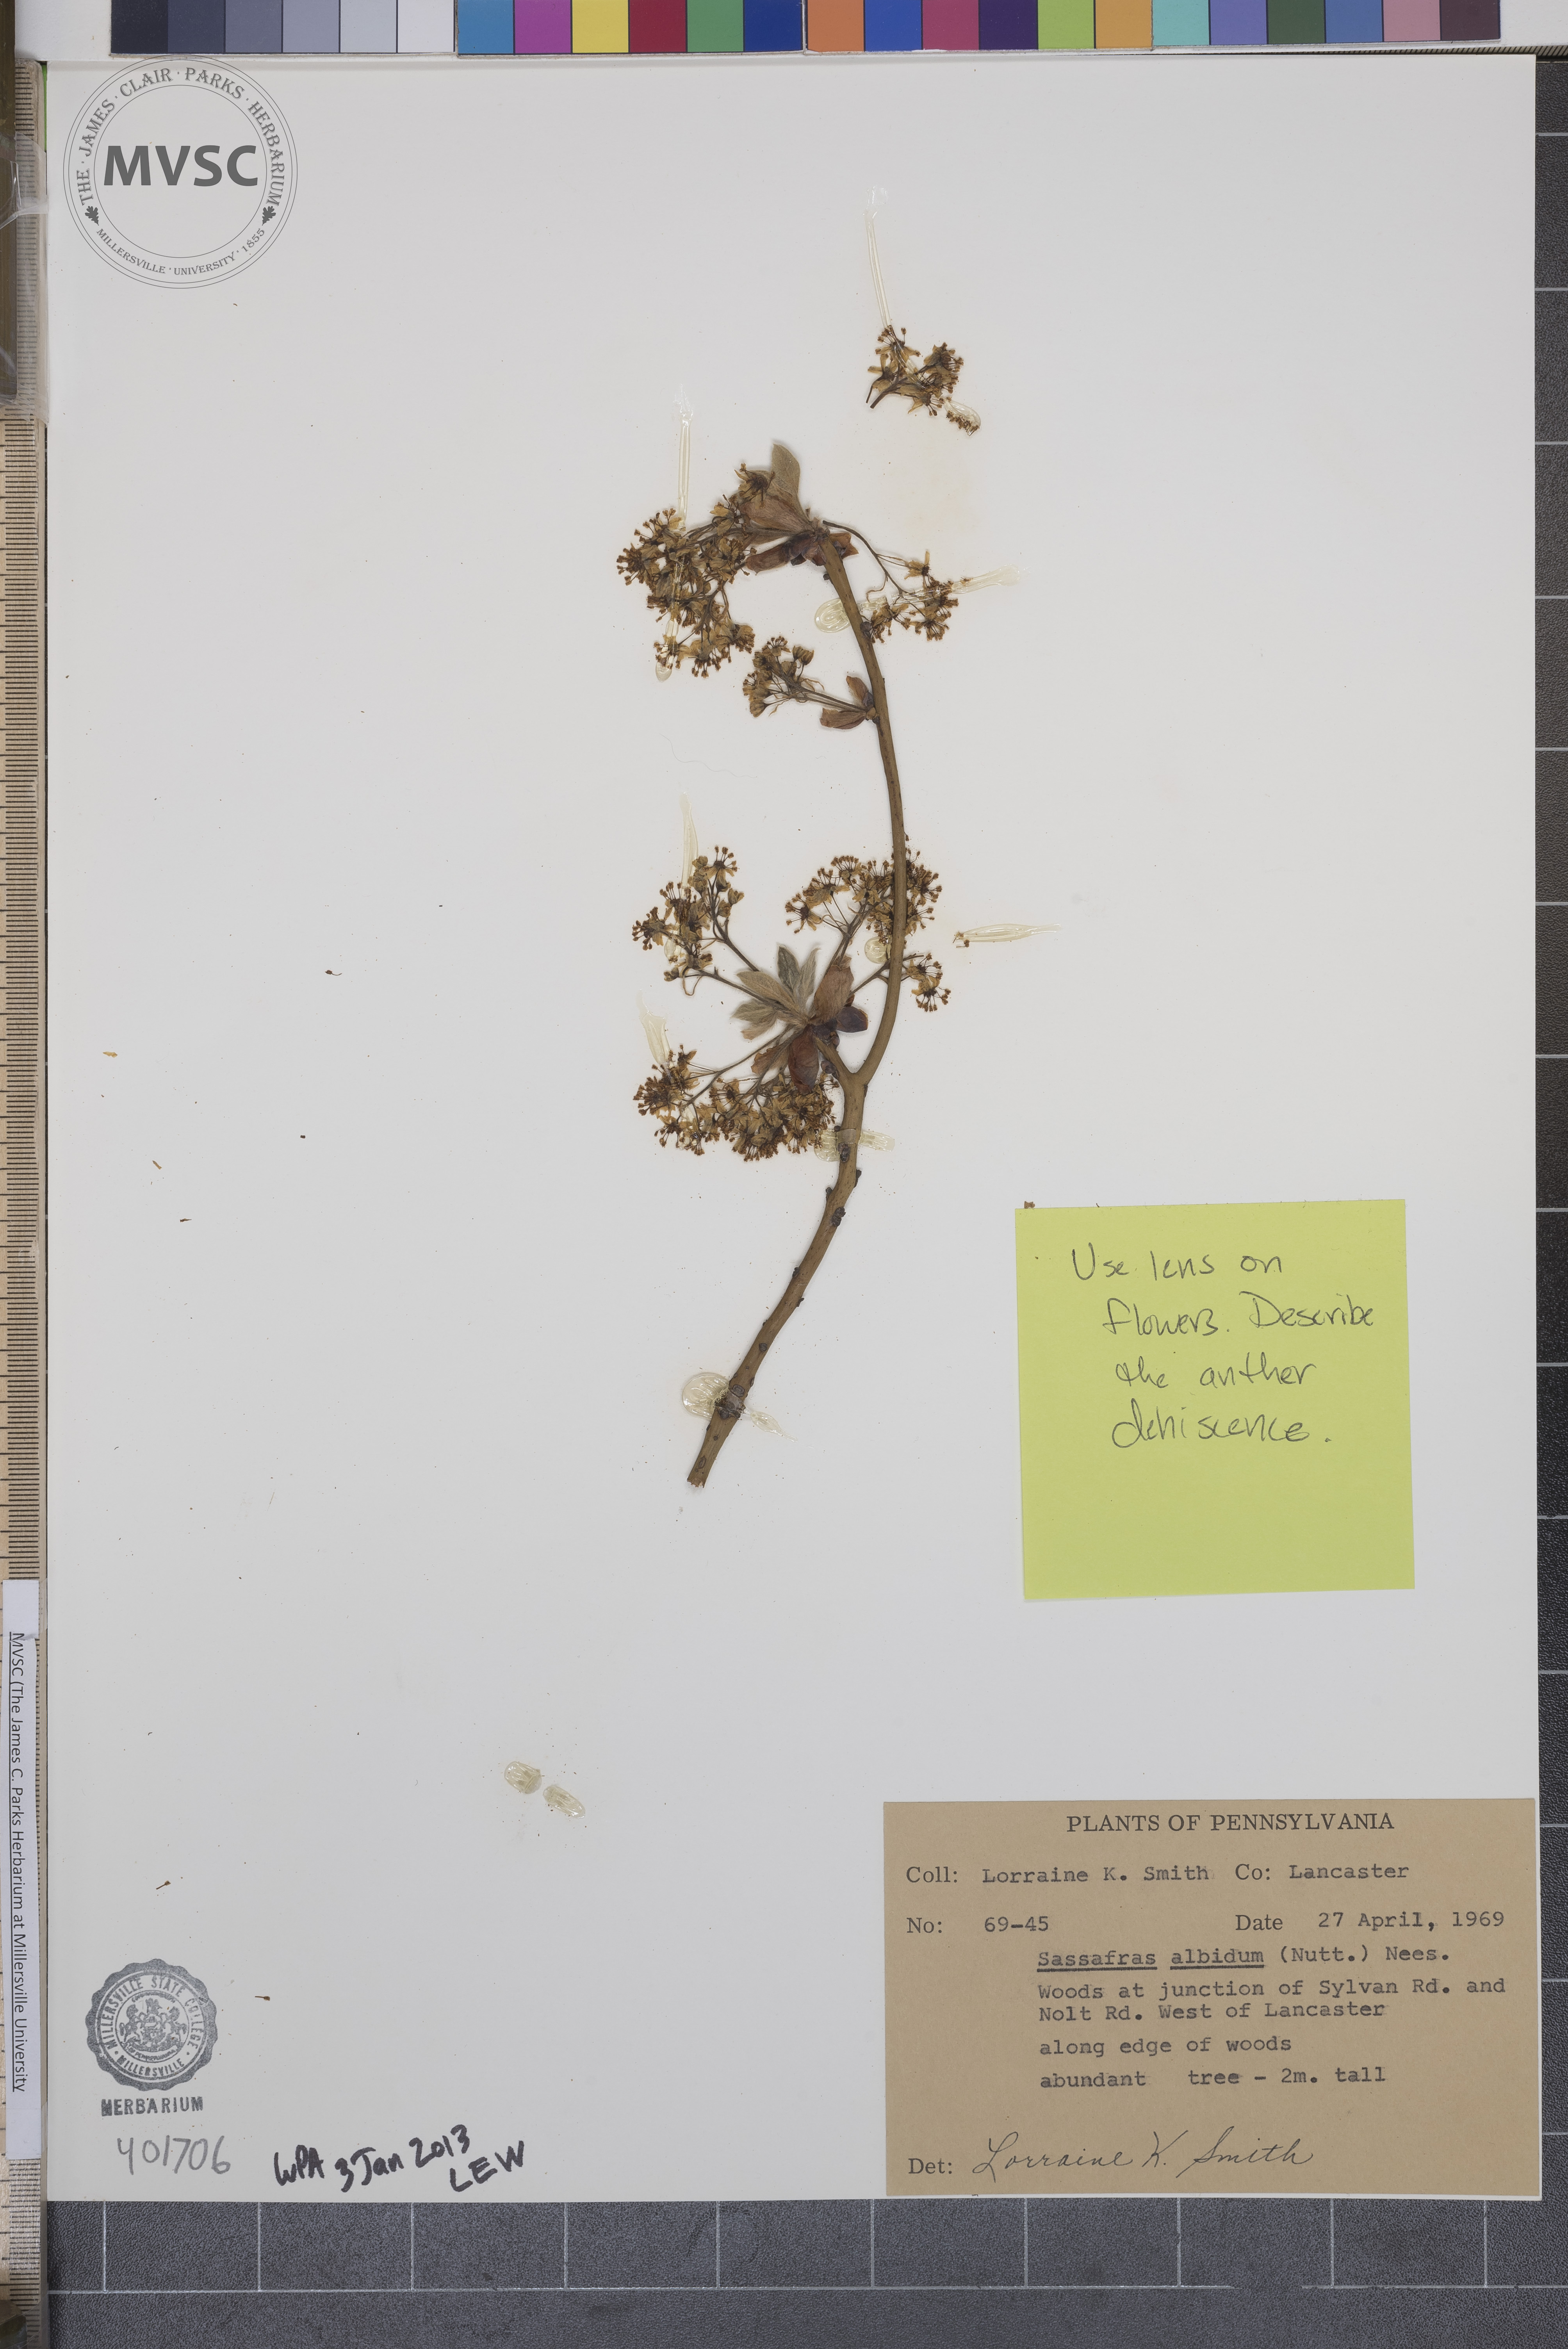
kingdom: Plantae
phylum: Tracheophyta
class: Magnoliopsida
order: Laurales
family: Lauraceae
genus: Sassafras
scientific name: Sassafras albidum
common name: Sassafras
